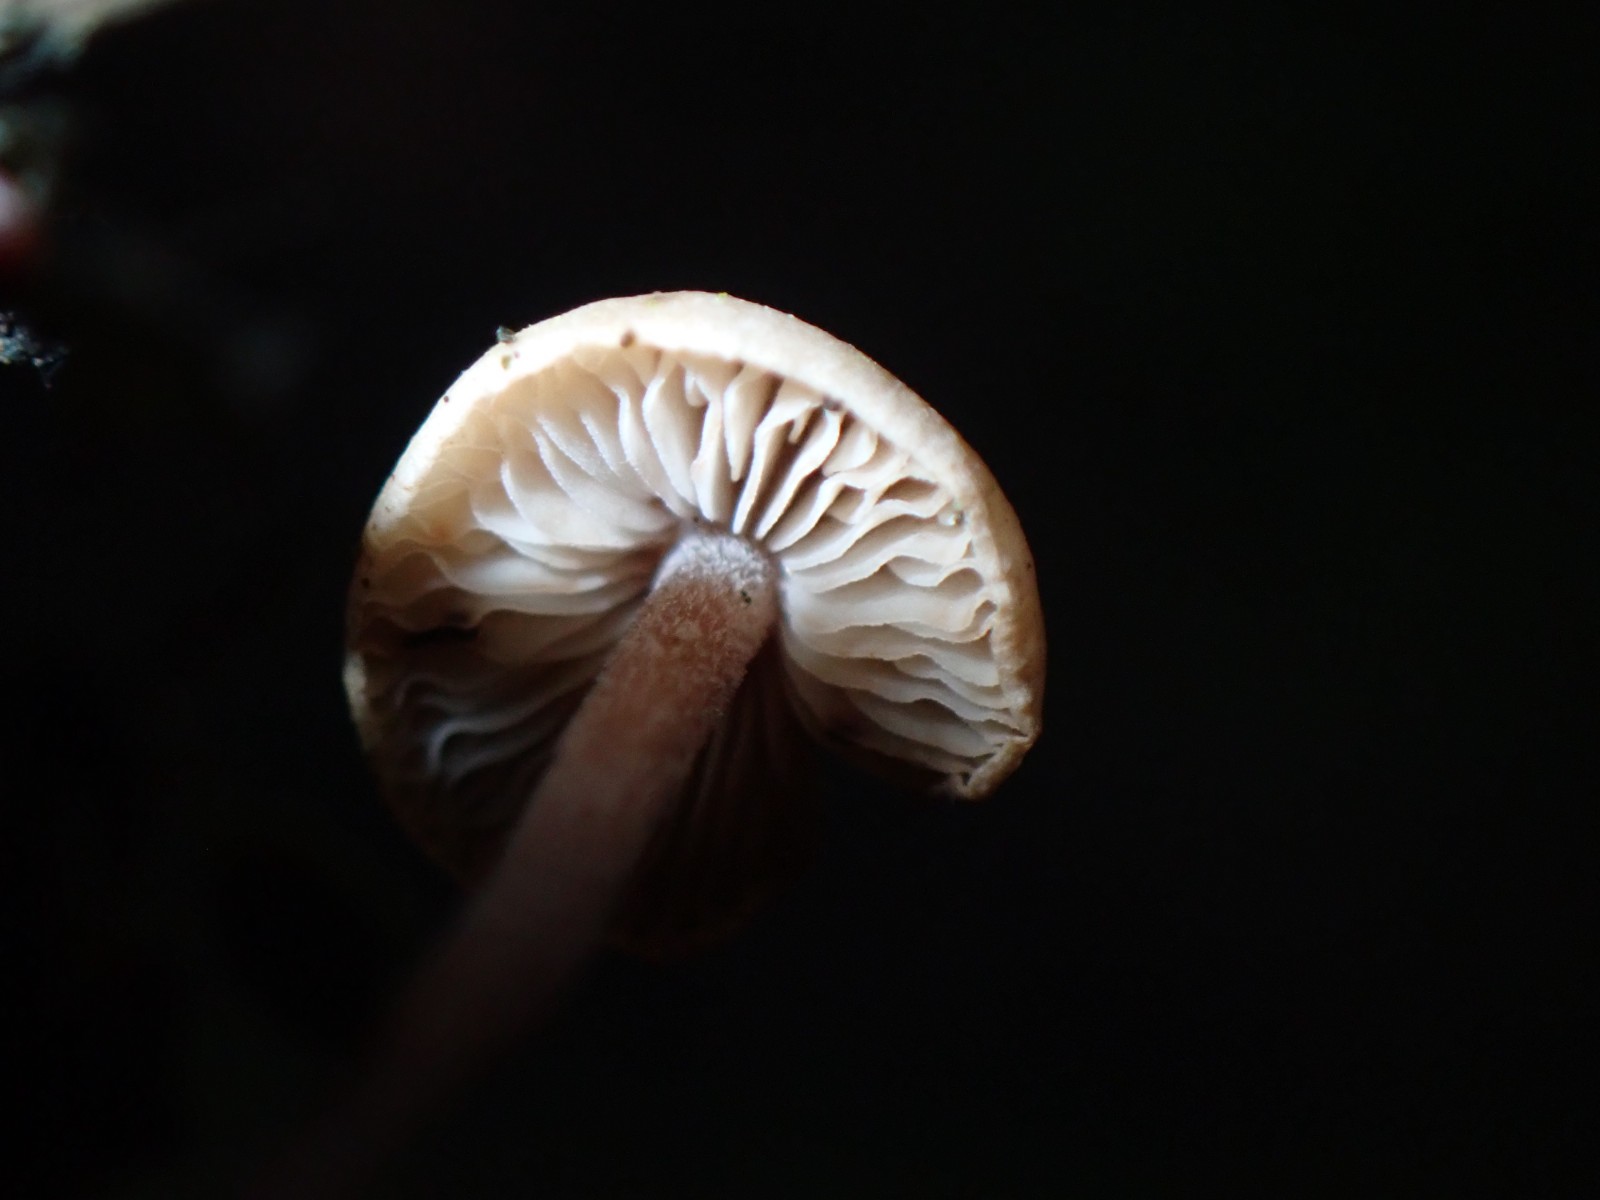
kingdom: Fungi
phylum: Basidiomycota
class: Agaricomycetes
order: Agaricales
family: Marasmiaceae
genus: Baeospora
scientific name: Baeospora myosura
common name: koglebruskhat
